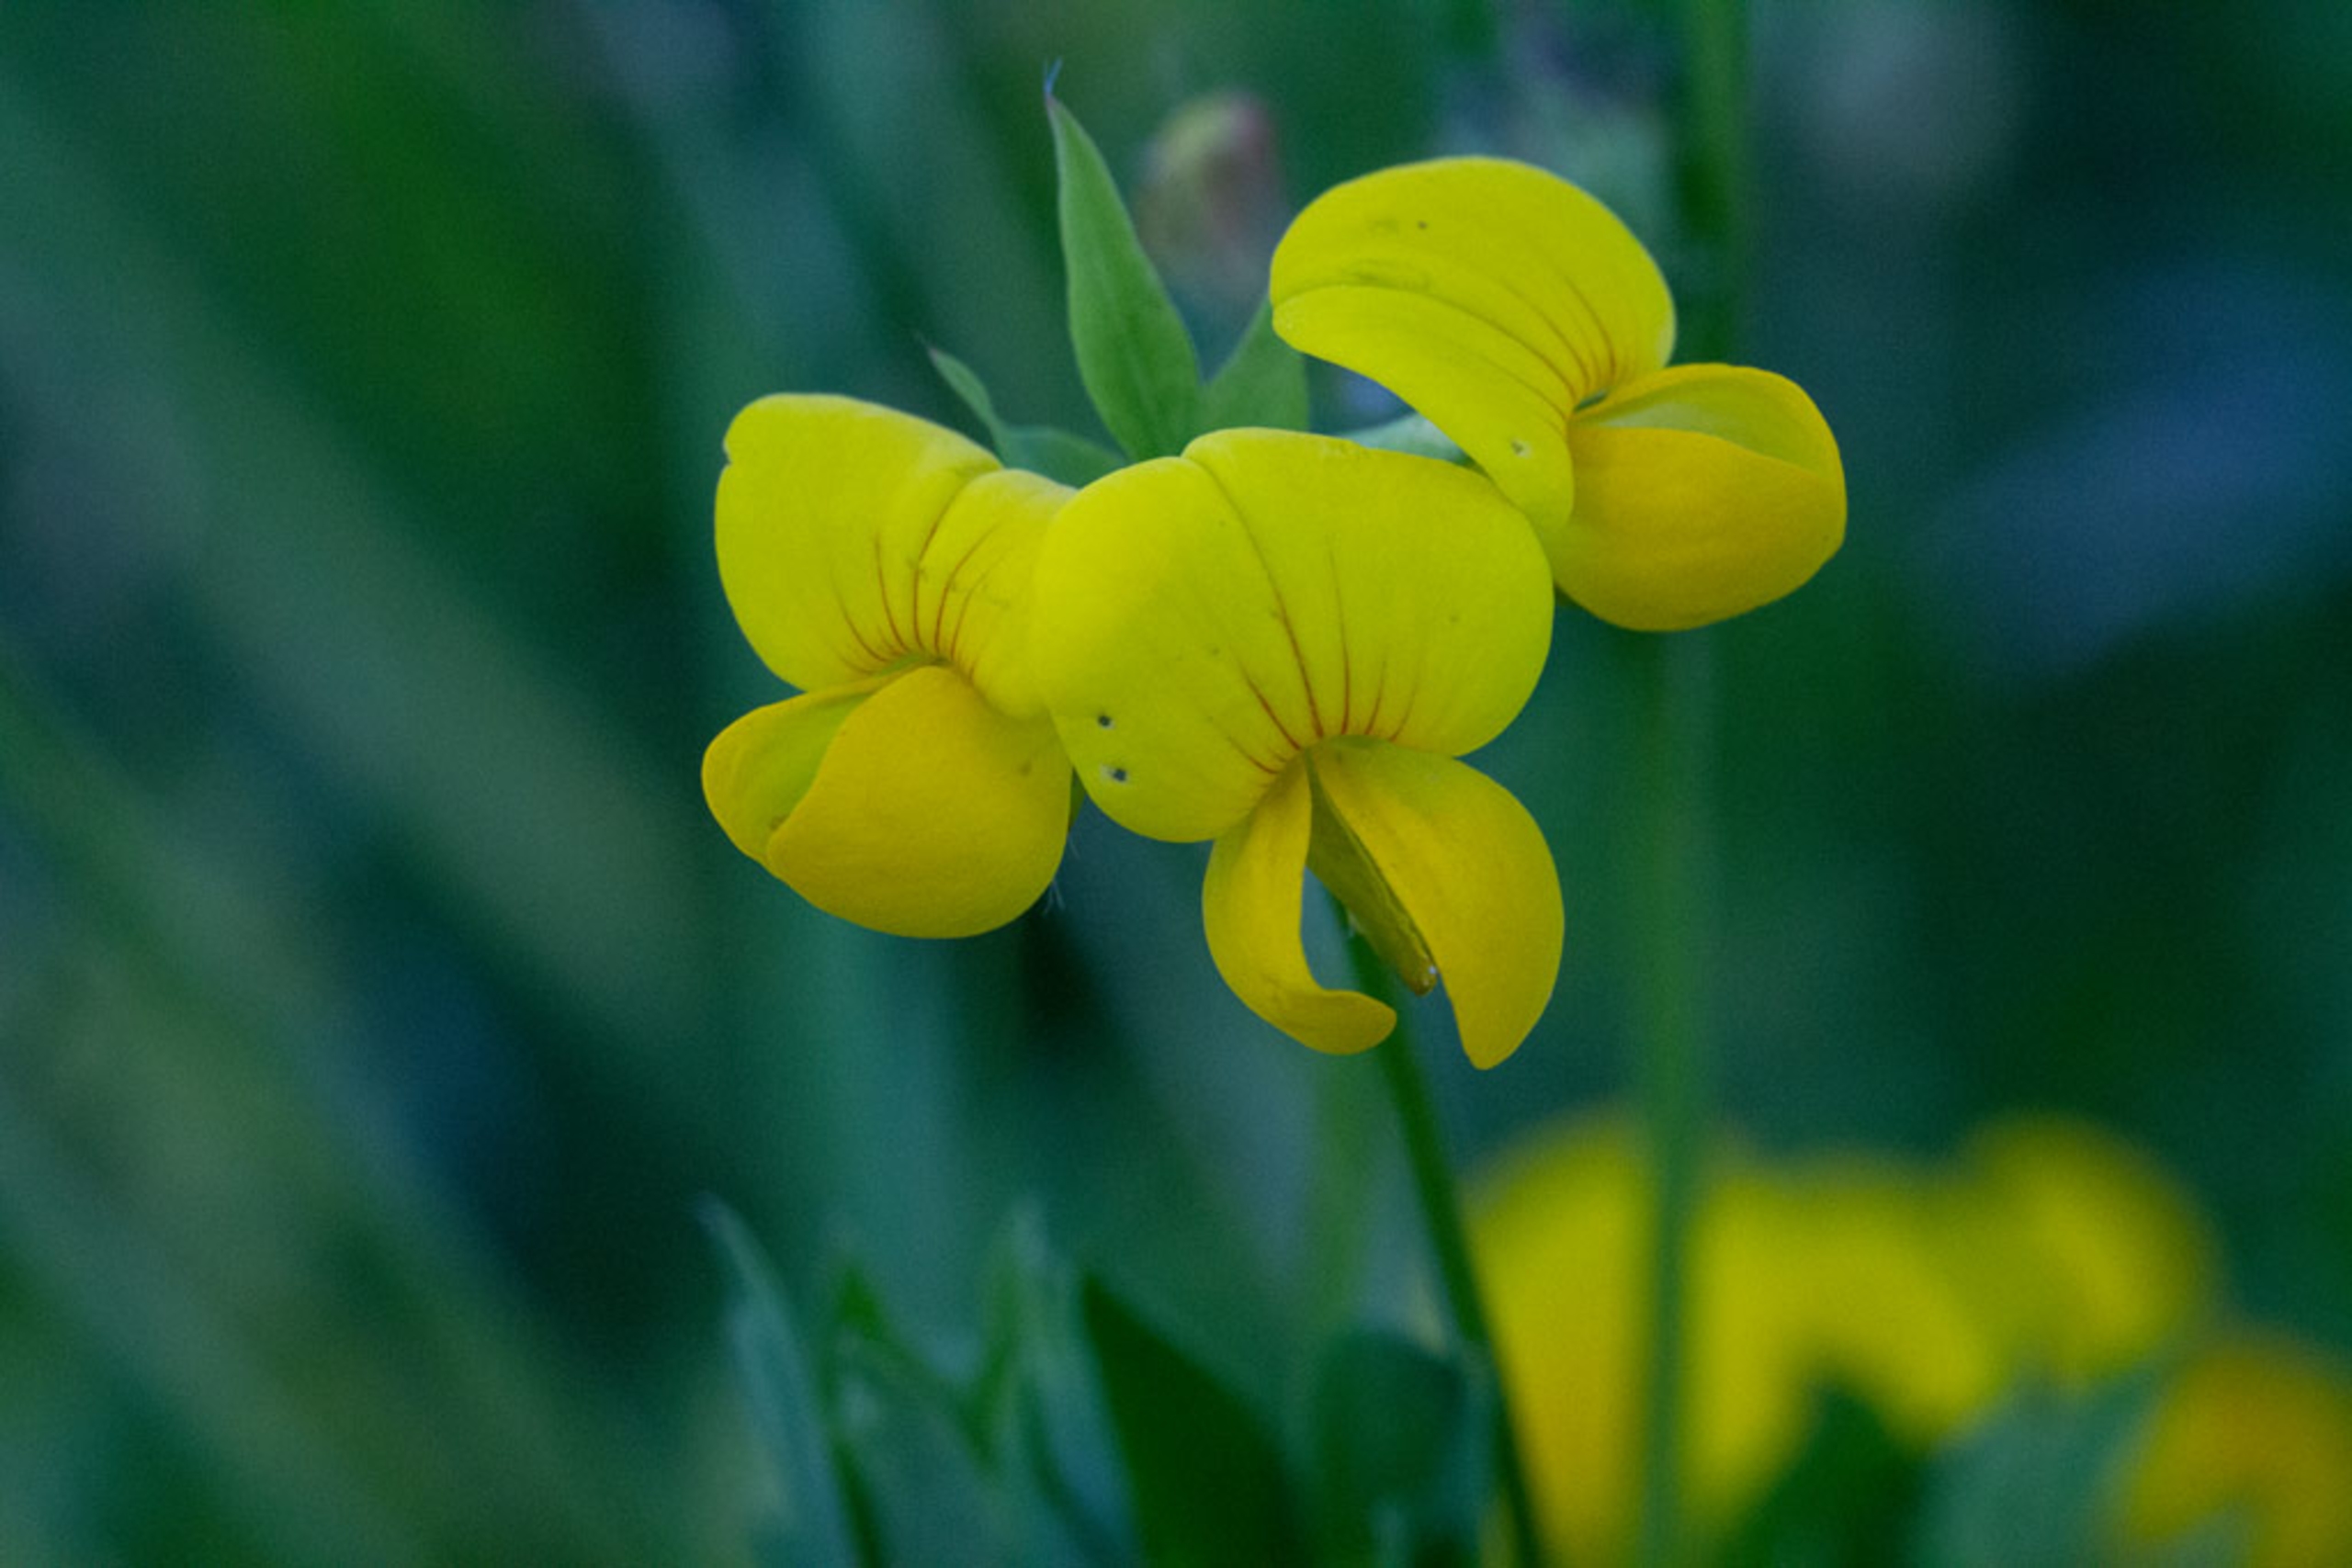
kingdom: Plantae
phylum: Tracheophyta
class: Magnoliopsida
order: Fabales
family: Fabaceae
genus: Lotus
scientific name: Lotus
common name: Kællingetandslægten
